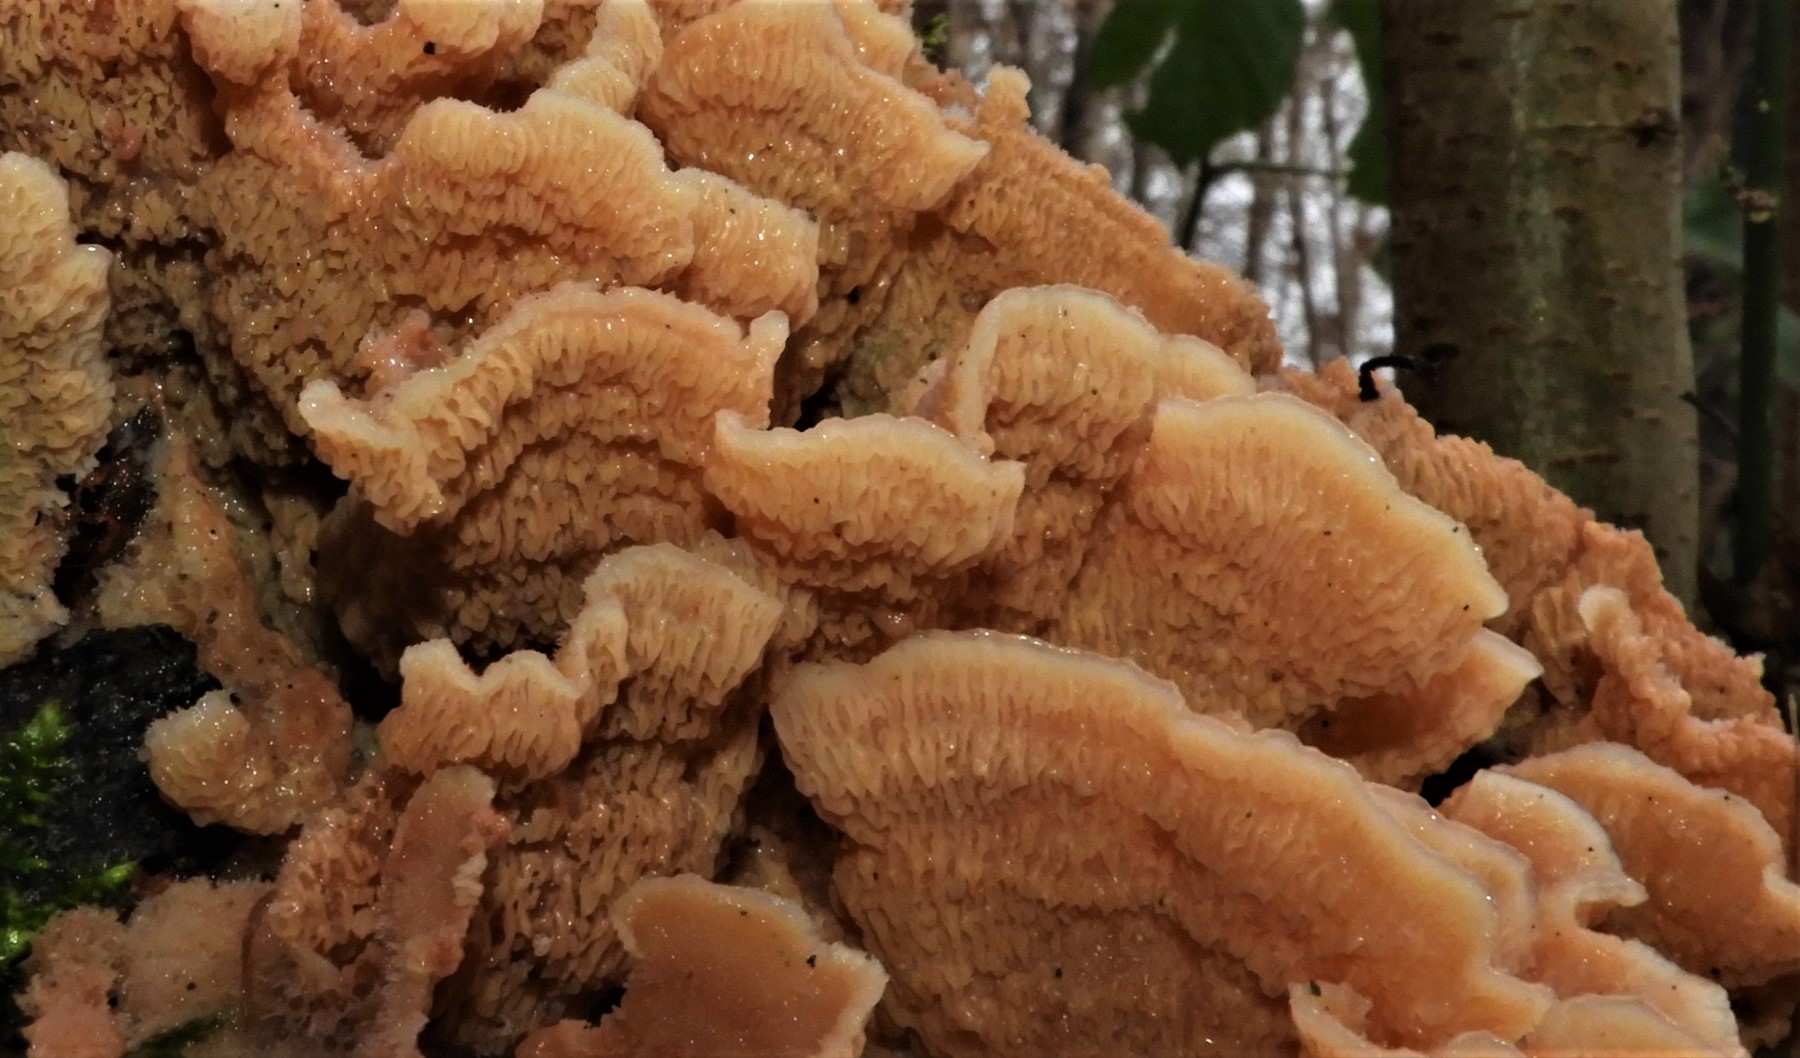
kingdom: Fungi
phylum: Basidiomycota
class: Agaricomycetes
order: Polyporales
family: Meruliaceae
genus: Phlebia
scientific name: Phlebia tremellosa
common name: bævrende åresvamp
